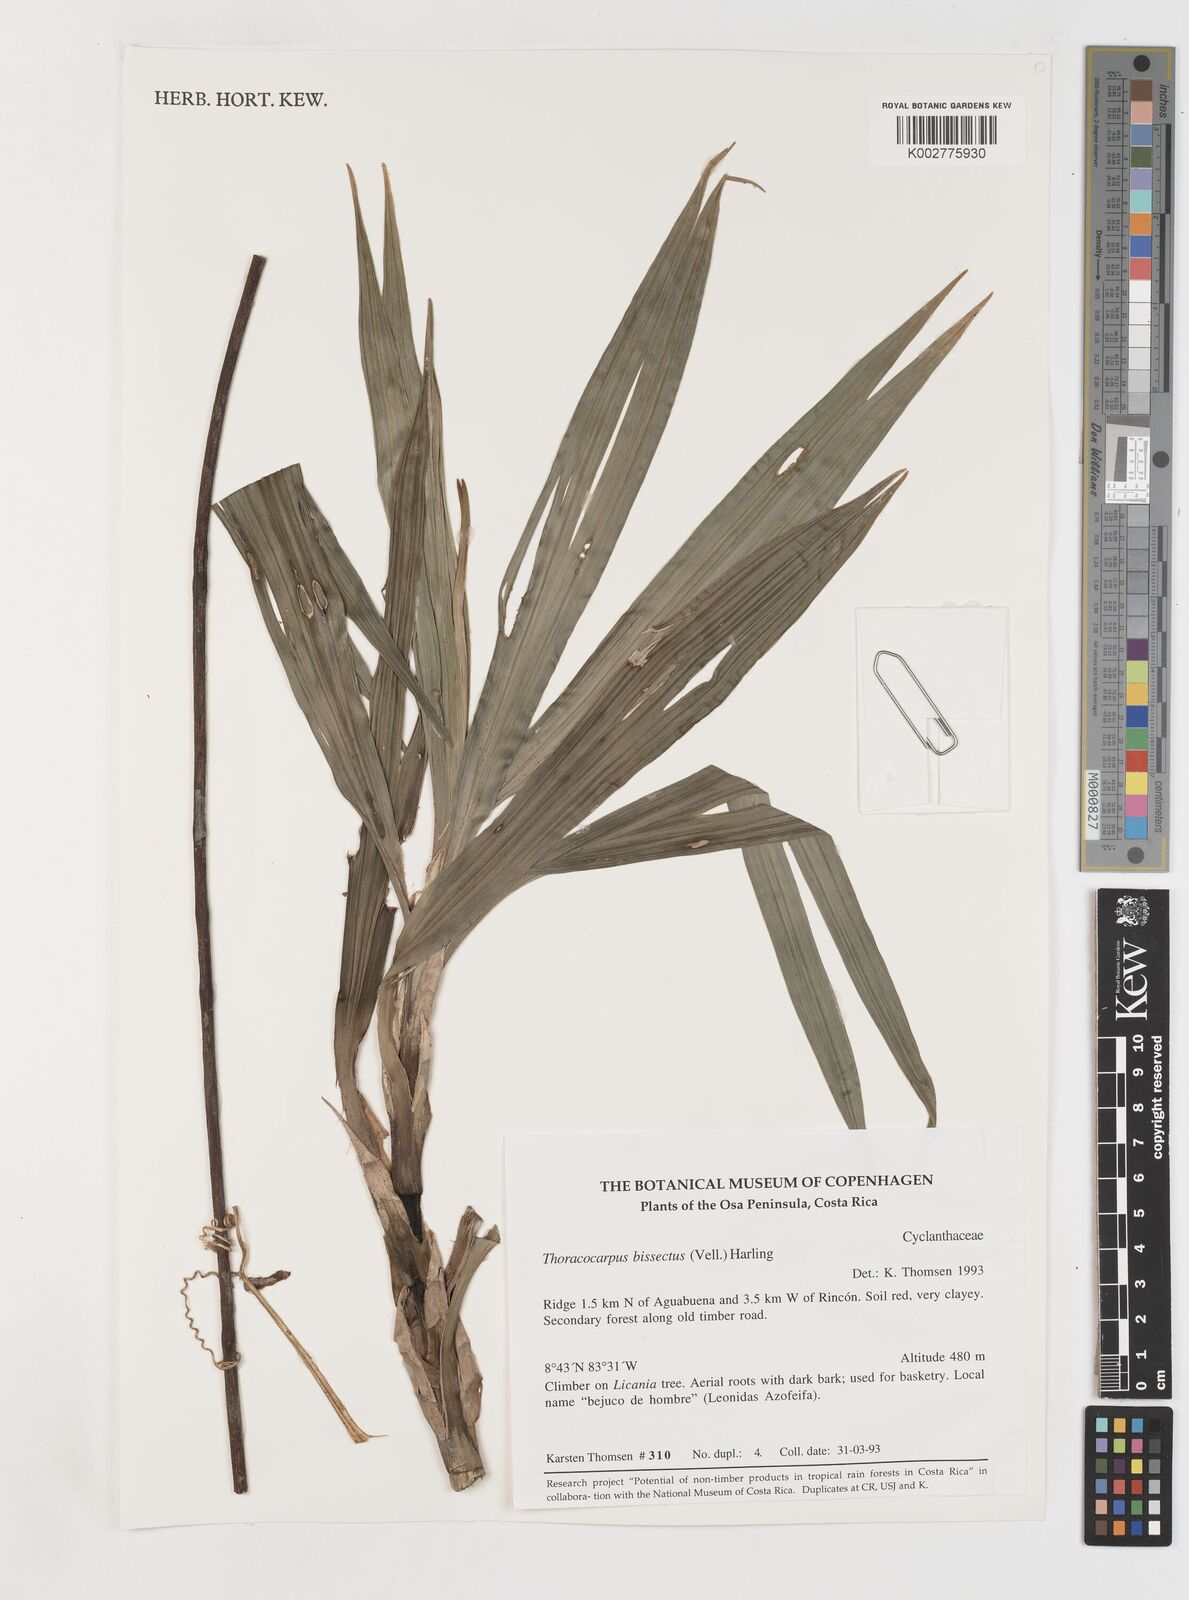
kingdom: Plantae
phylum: Tracheophyta
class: Liliopsida
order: Pandanales
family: Cyclanthaceae
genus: Thoracocarpus
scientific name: Thoracocarpus bissectus
